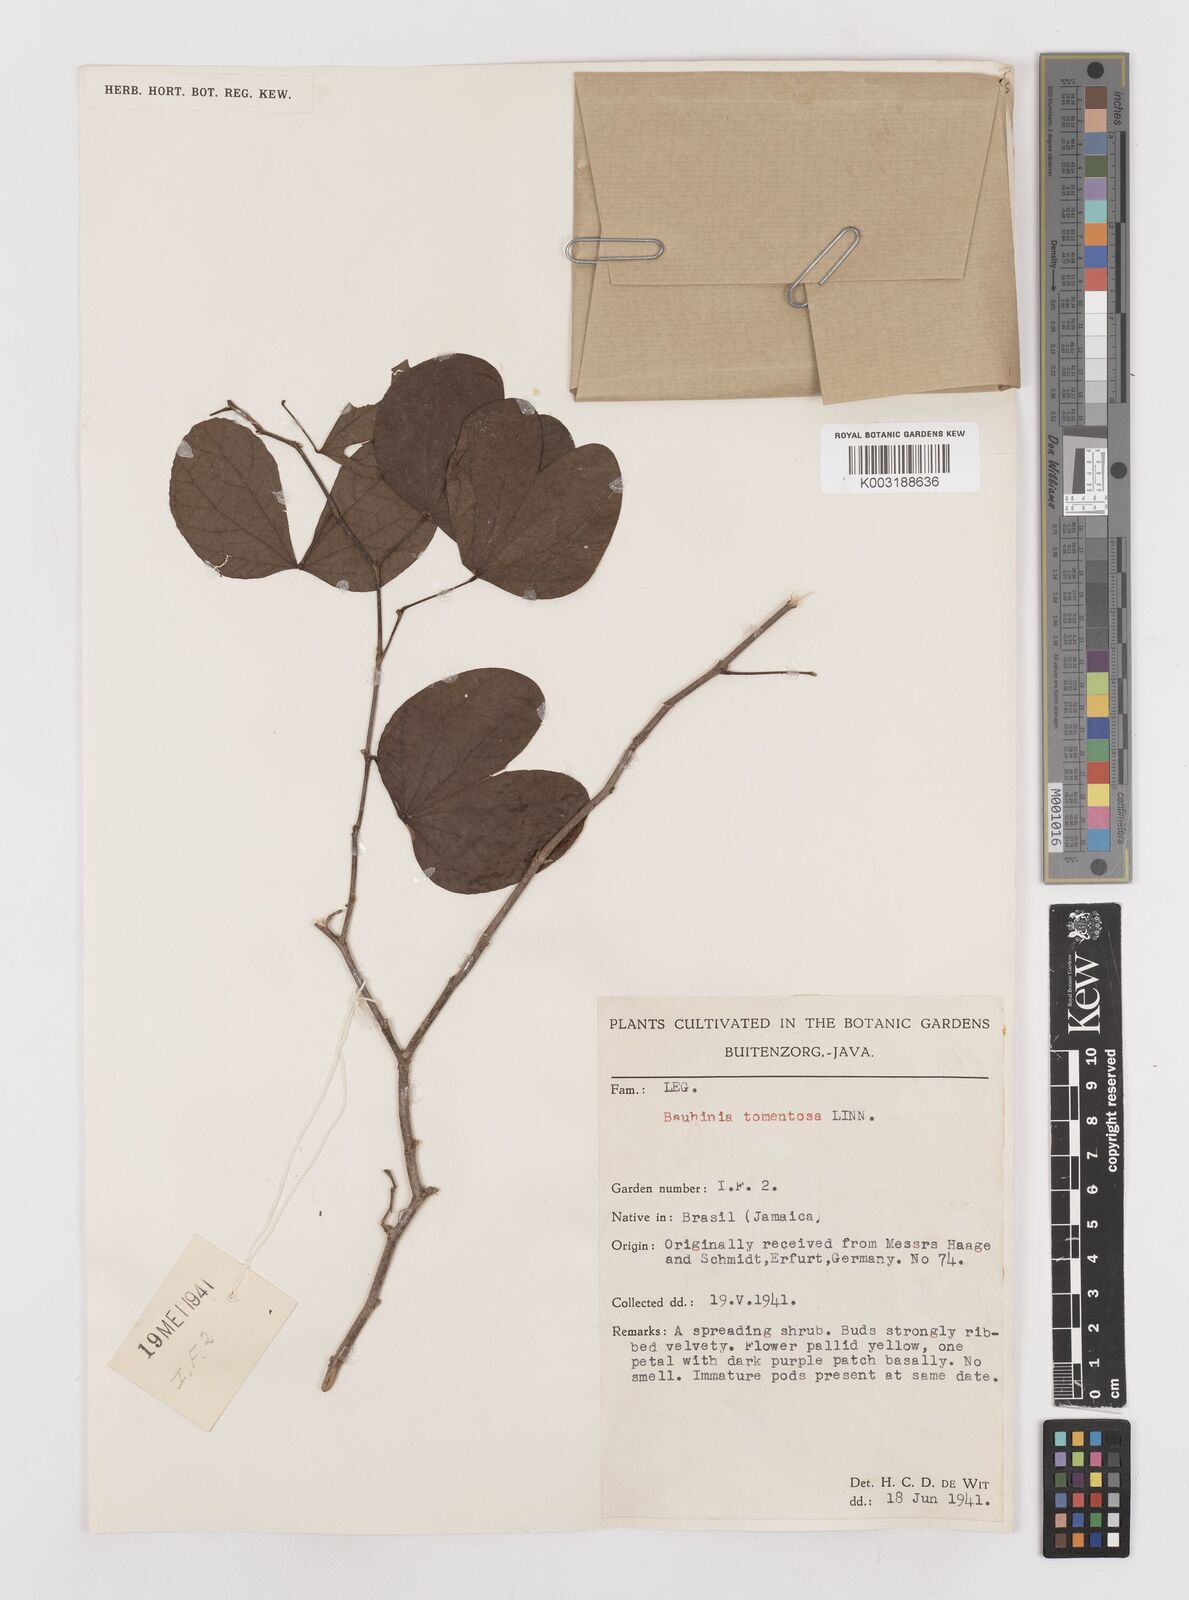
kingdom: Plantae
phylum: Tracheophyta
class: Magnoliopsida
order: Fabales
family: Fabaceae
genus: Bauhinia
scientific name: Bauhinia tomentosa
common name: Bell bauhinia
